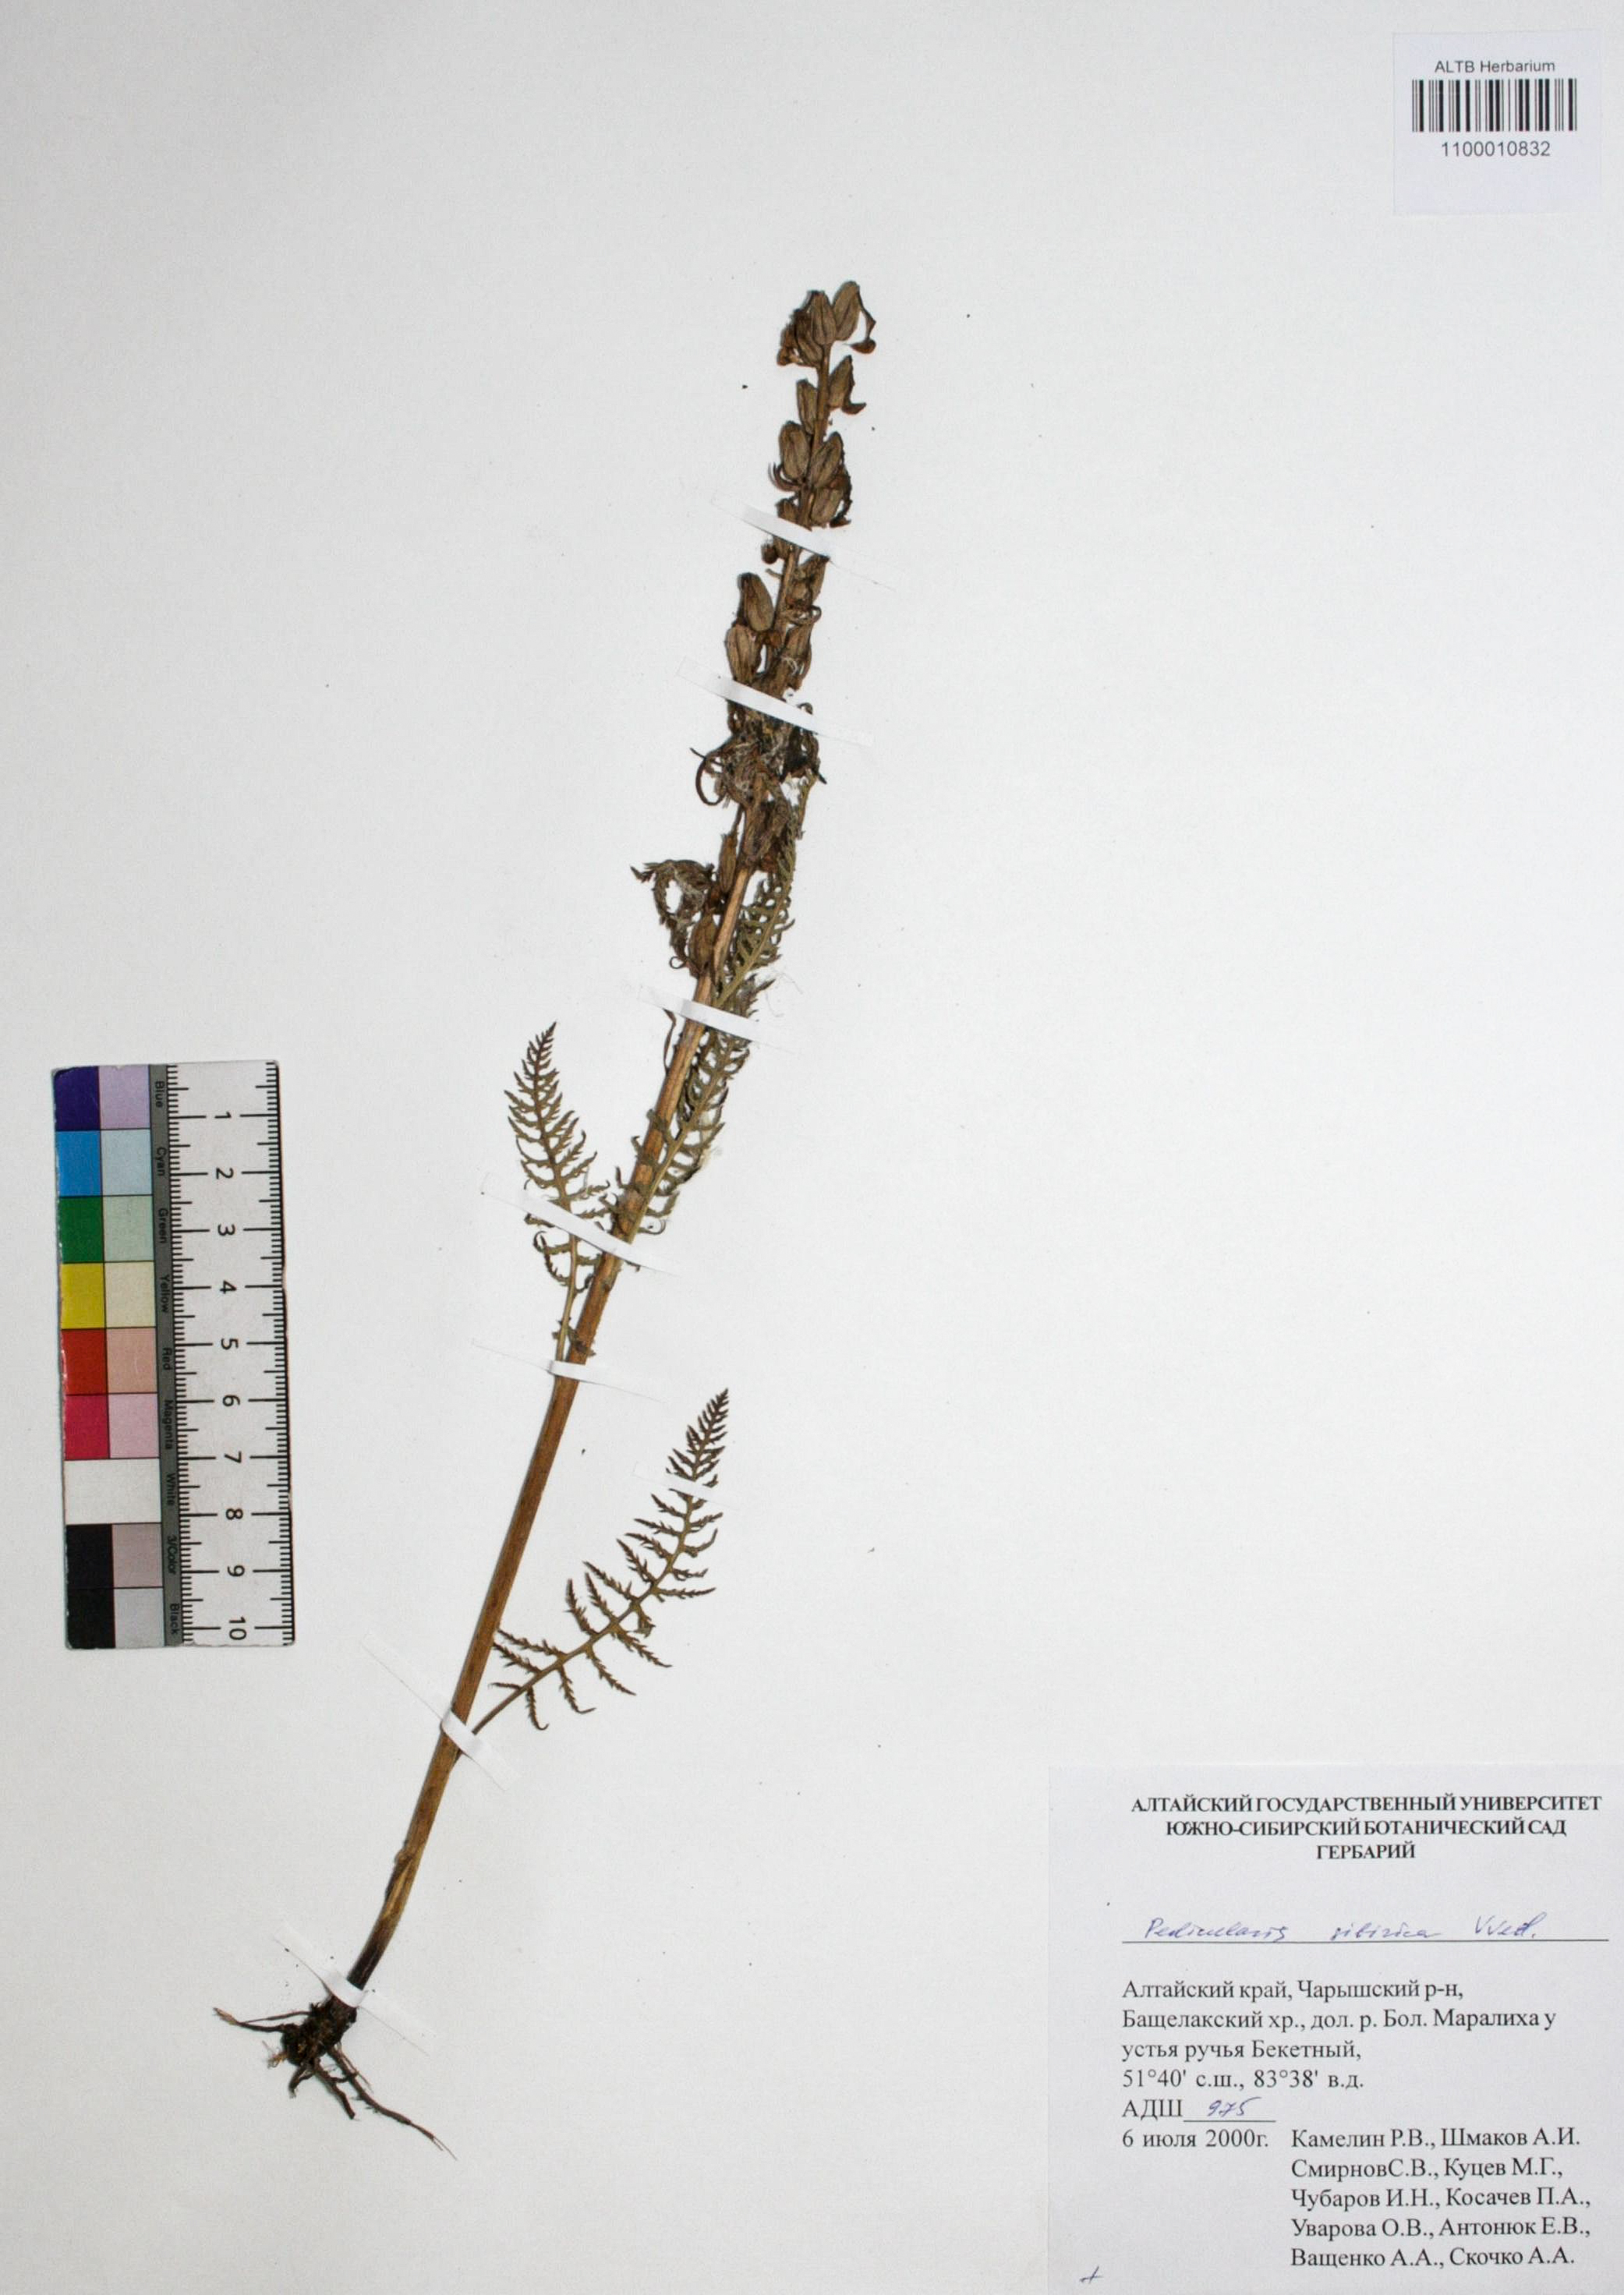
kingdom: Plantae
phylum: Tracheophyta
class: Magnoliopsida
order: Lamiales
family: Orobanchaceae
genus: Pedicularis
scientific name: Pedicularis sibirica
